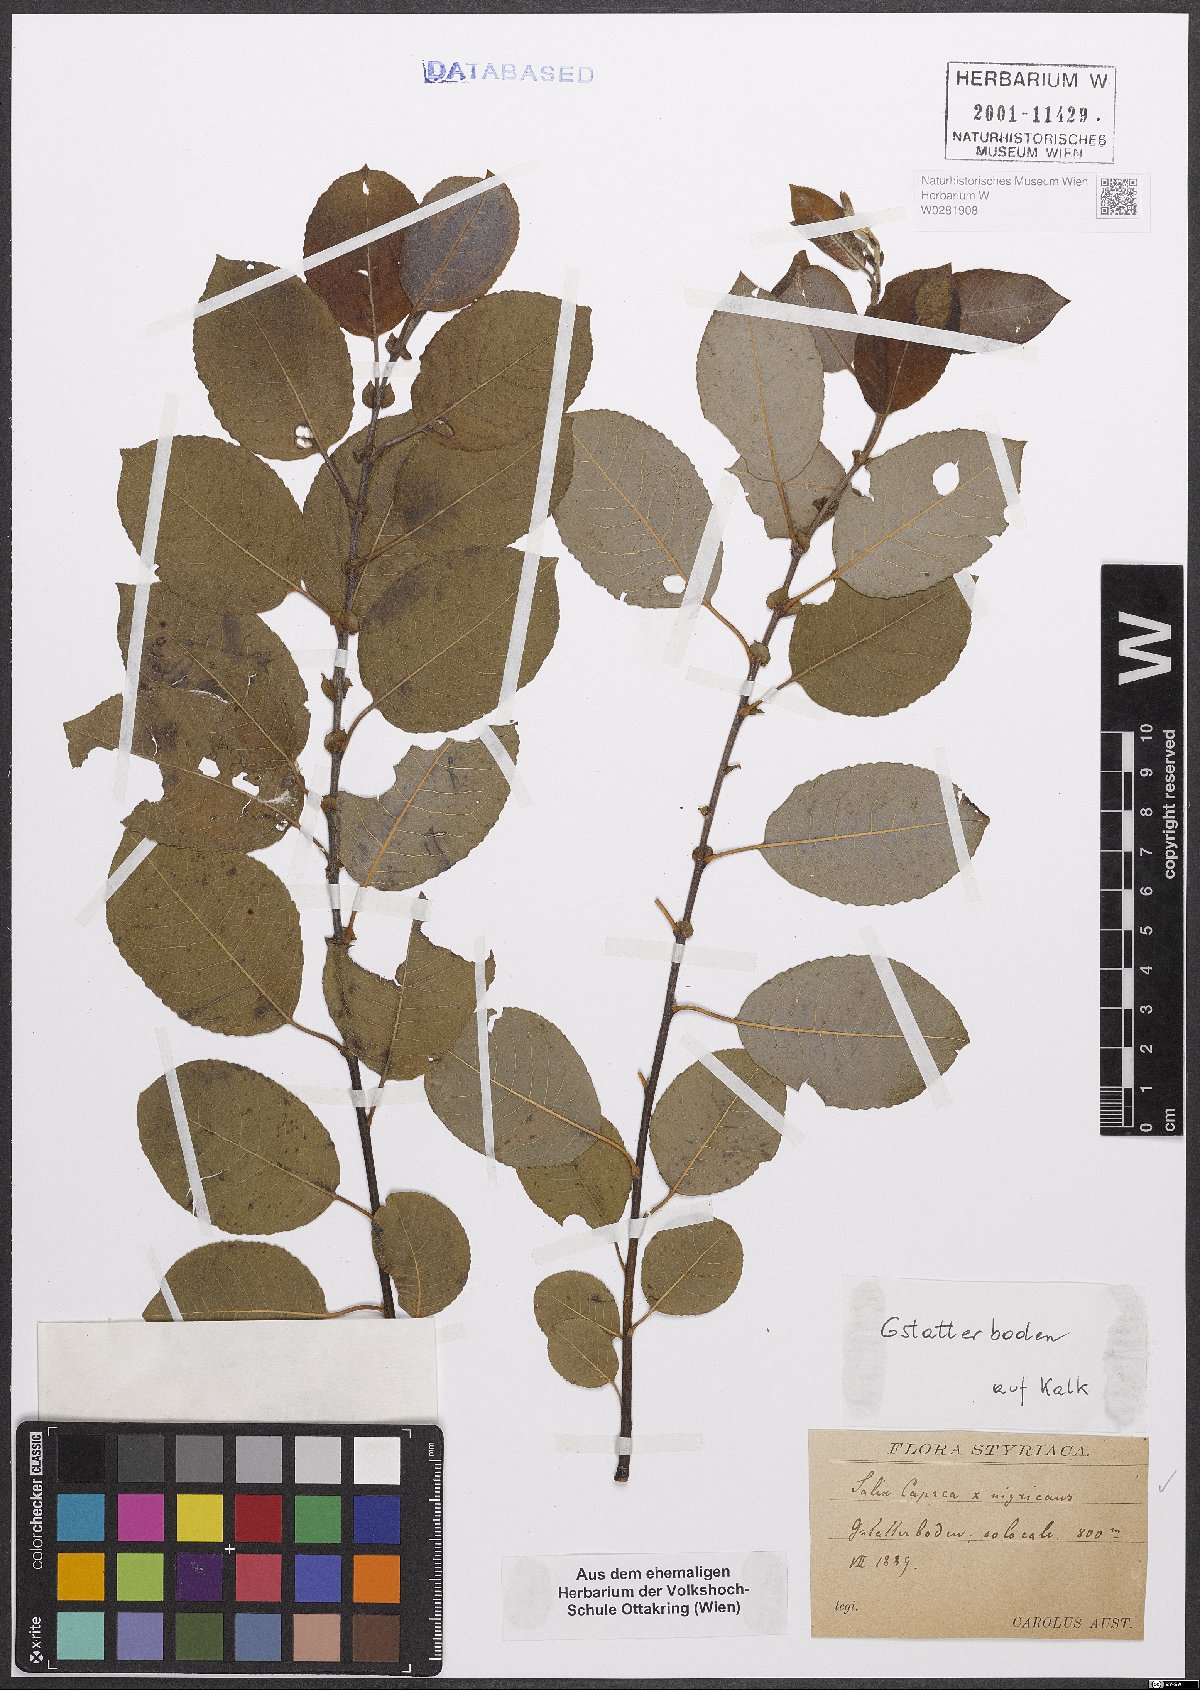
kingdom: Plantae
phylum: Tracheophyta
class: Magnoliopsida
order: Malpighiales
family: Salicaceae
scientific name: Salicaceae
